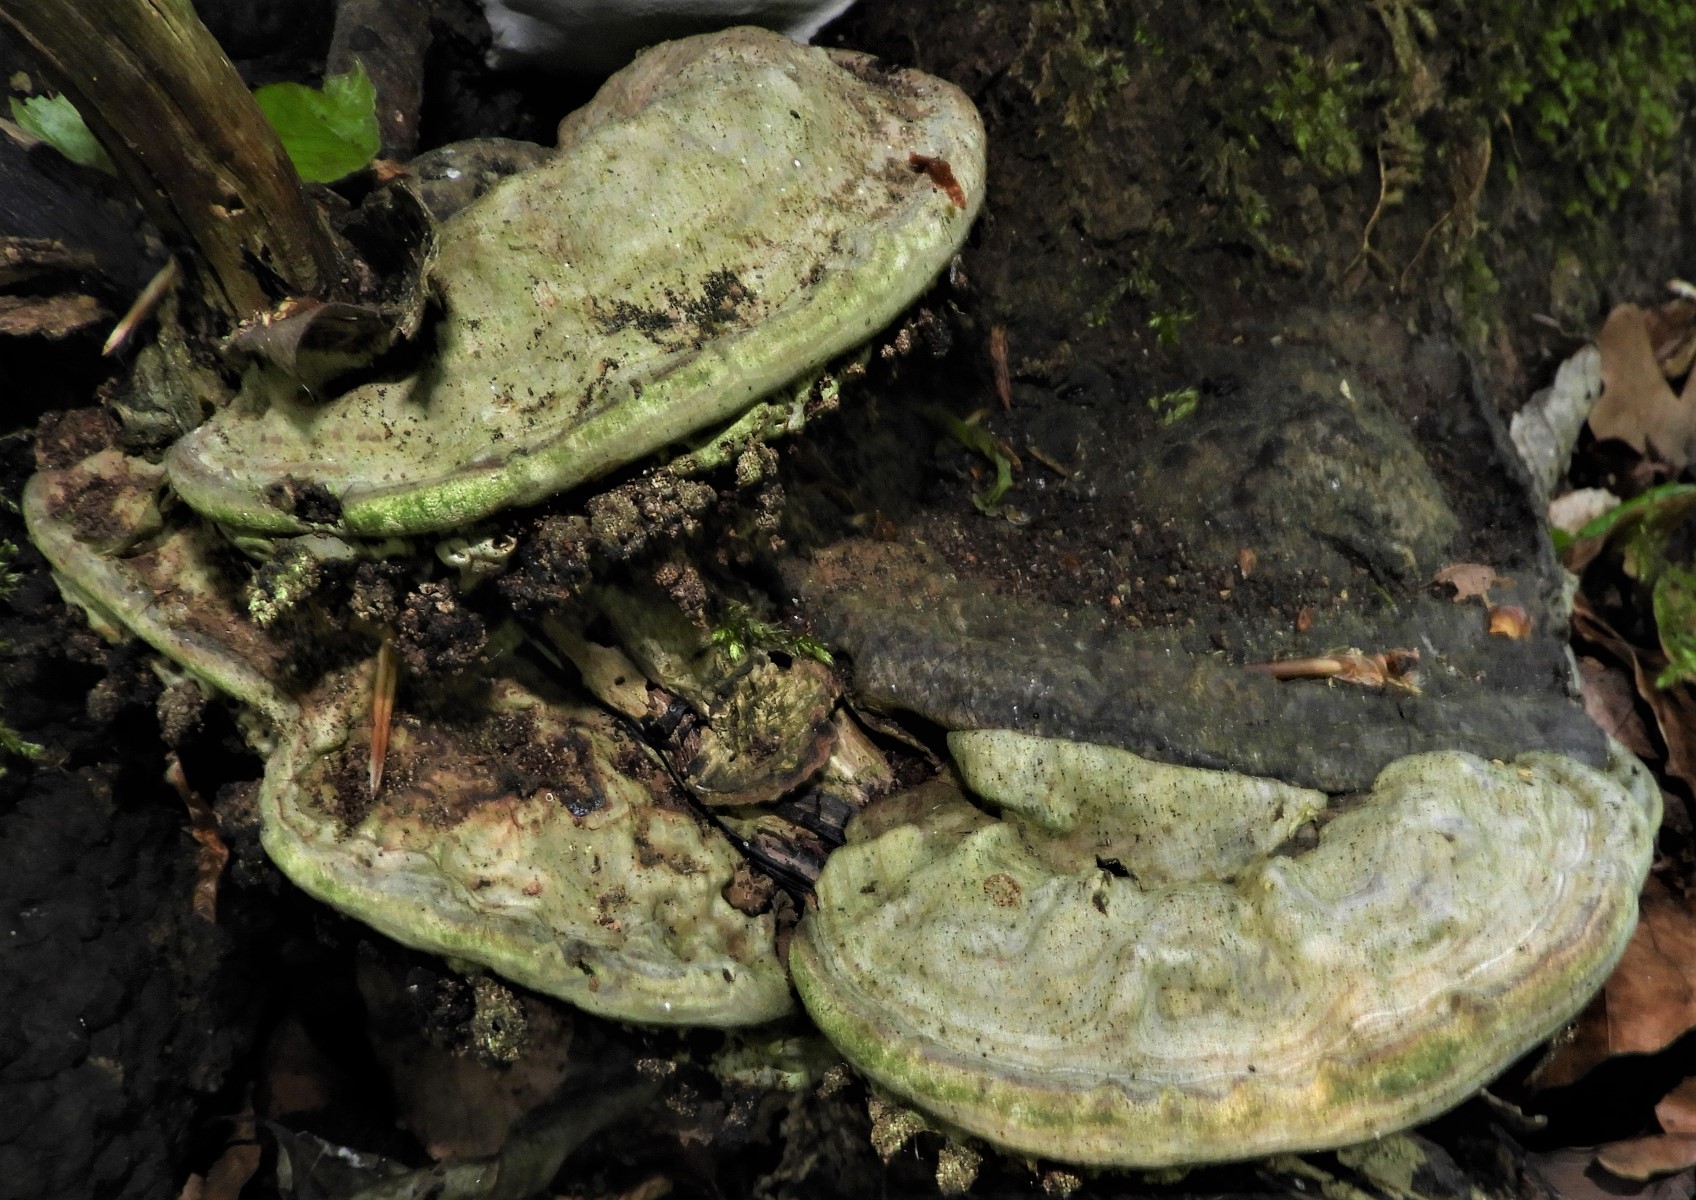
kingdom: Fungi
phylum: Basidiomycota
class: Agaricomycetes
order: Polyporales
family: Polyporaceae
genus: Ganoderma
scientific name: Ganoderma applanatum
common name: flad lakporesvamp
